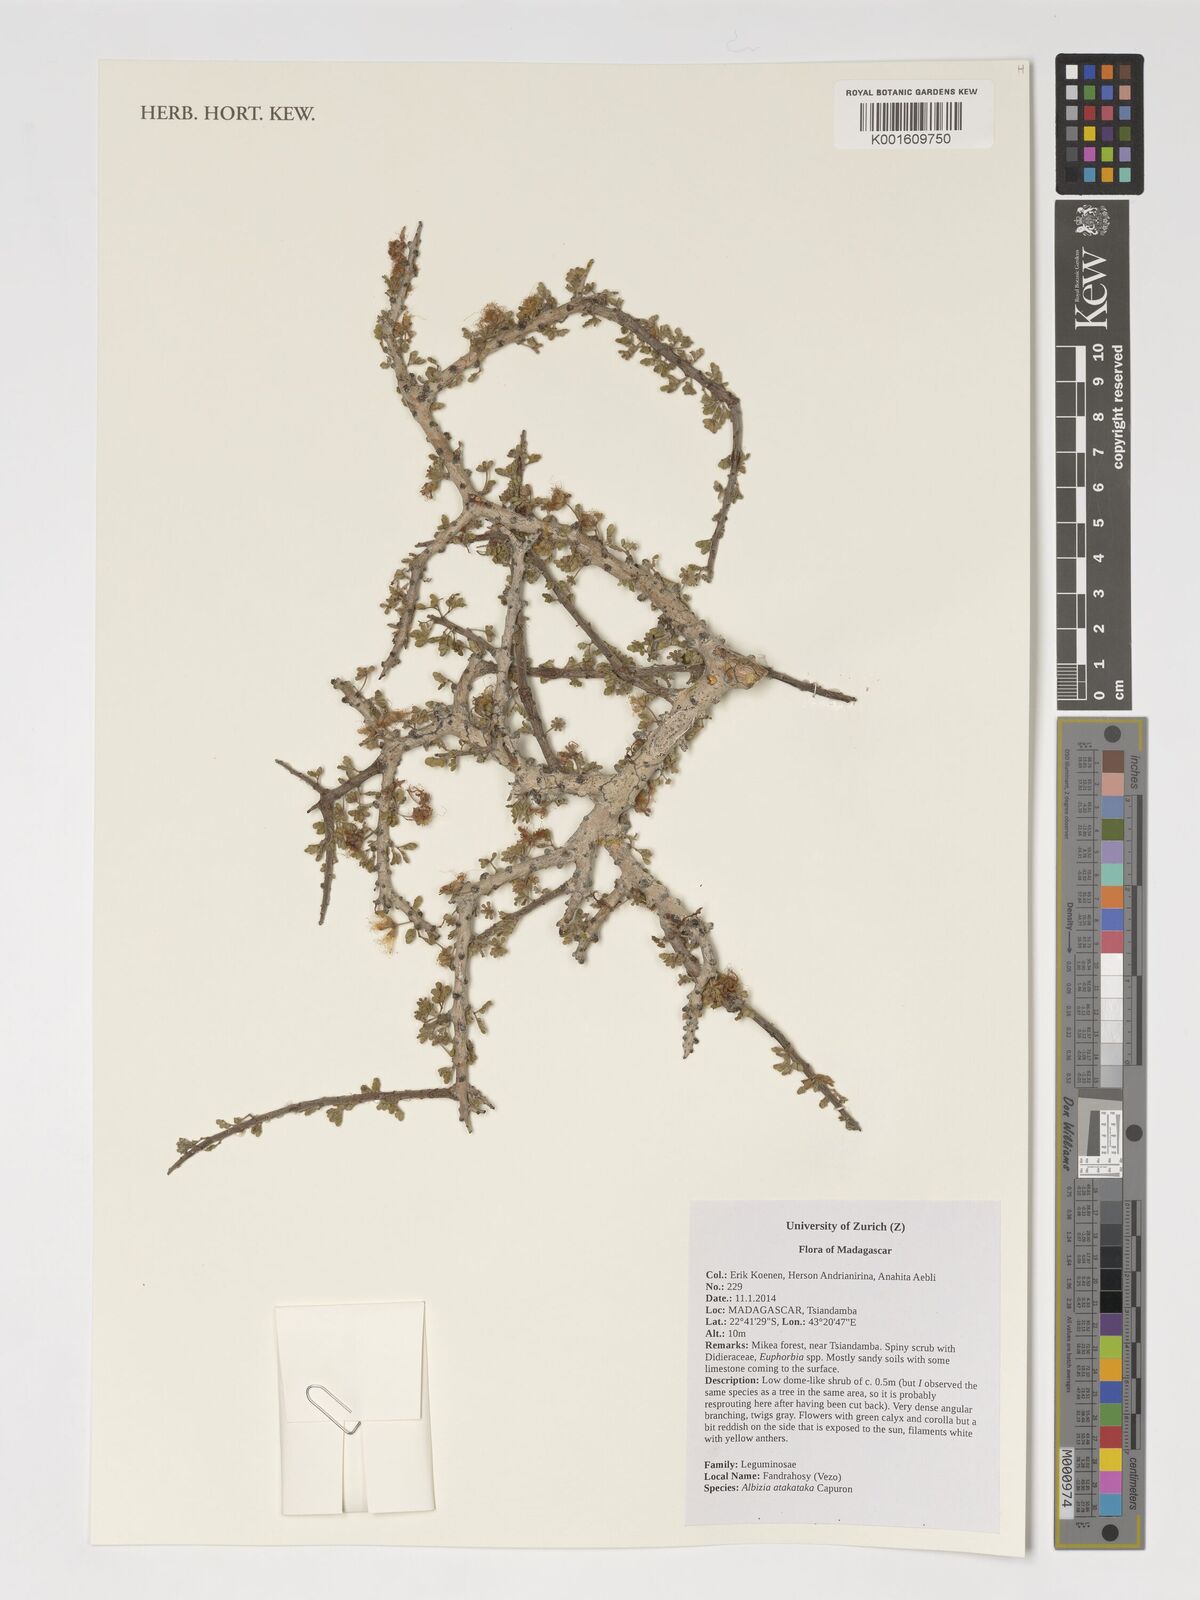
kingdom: Plantae
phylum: Tracheophyta
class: Magnoliopsida
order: Fabales
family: Fabaceae
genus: Albizia
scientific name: Albizia atakataka
